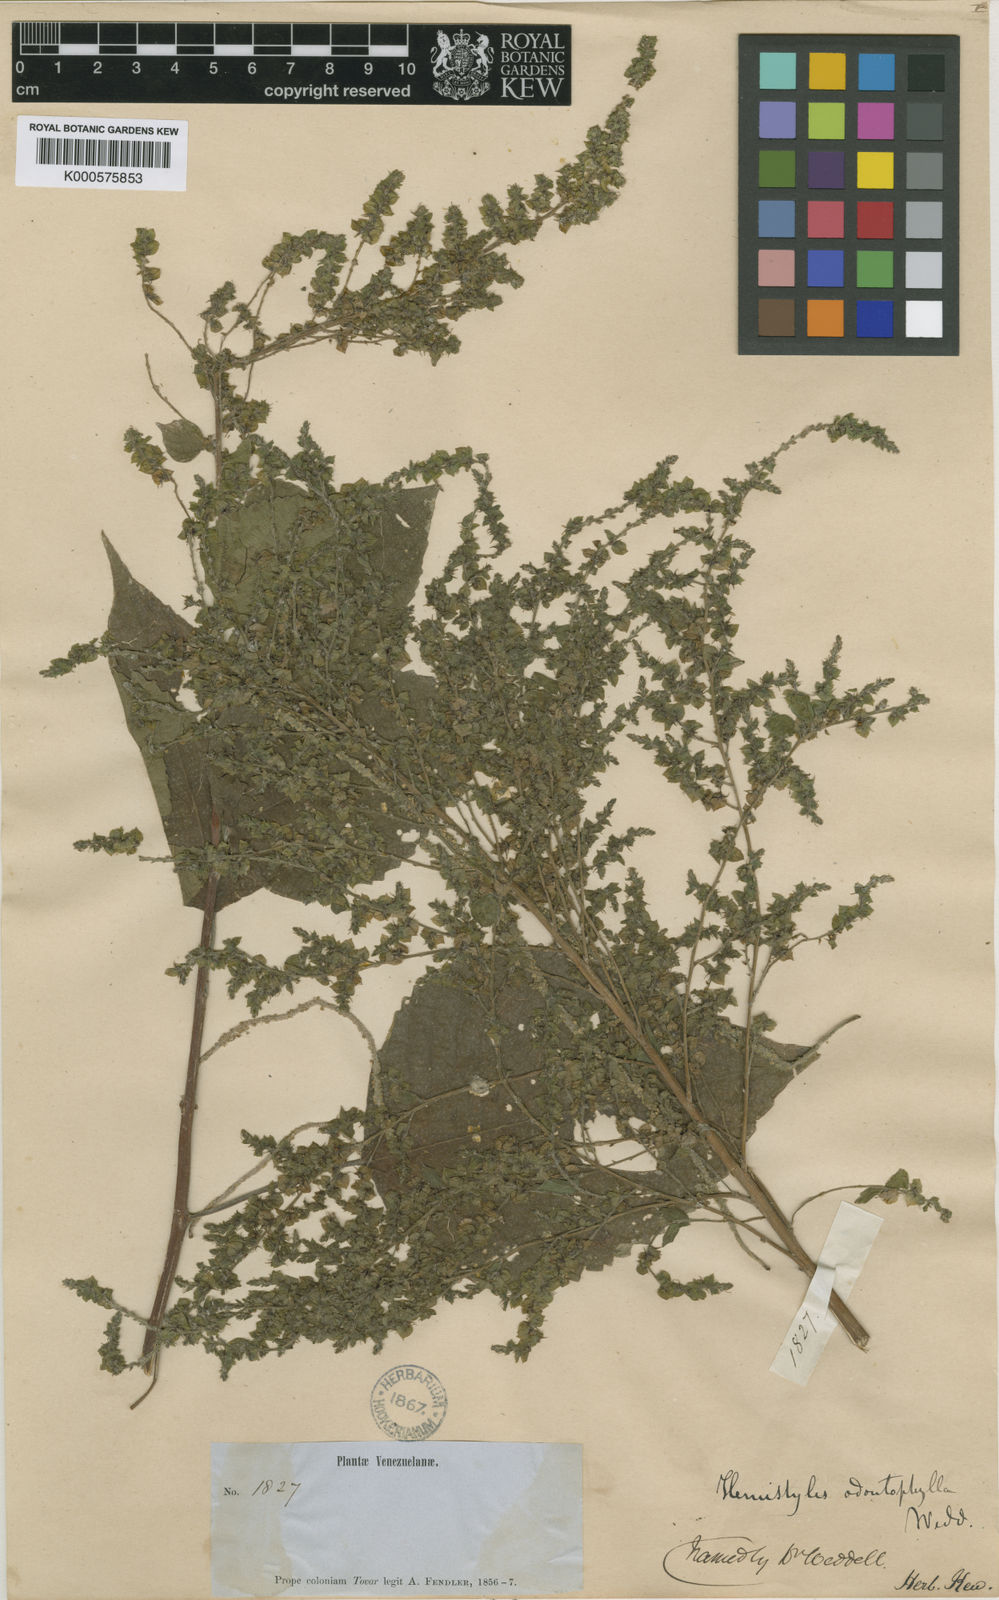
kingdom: Plantae
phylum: Tracheophyta
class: Magnoliopsida
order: Rosales
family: Urticaceae
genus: Hemistylus
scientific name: Hemistylus odontophylla
